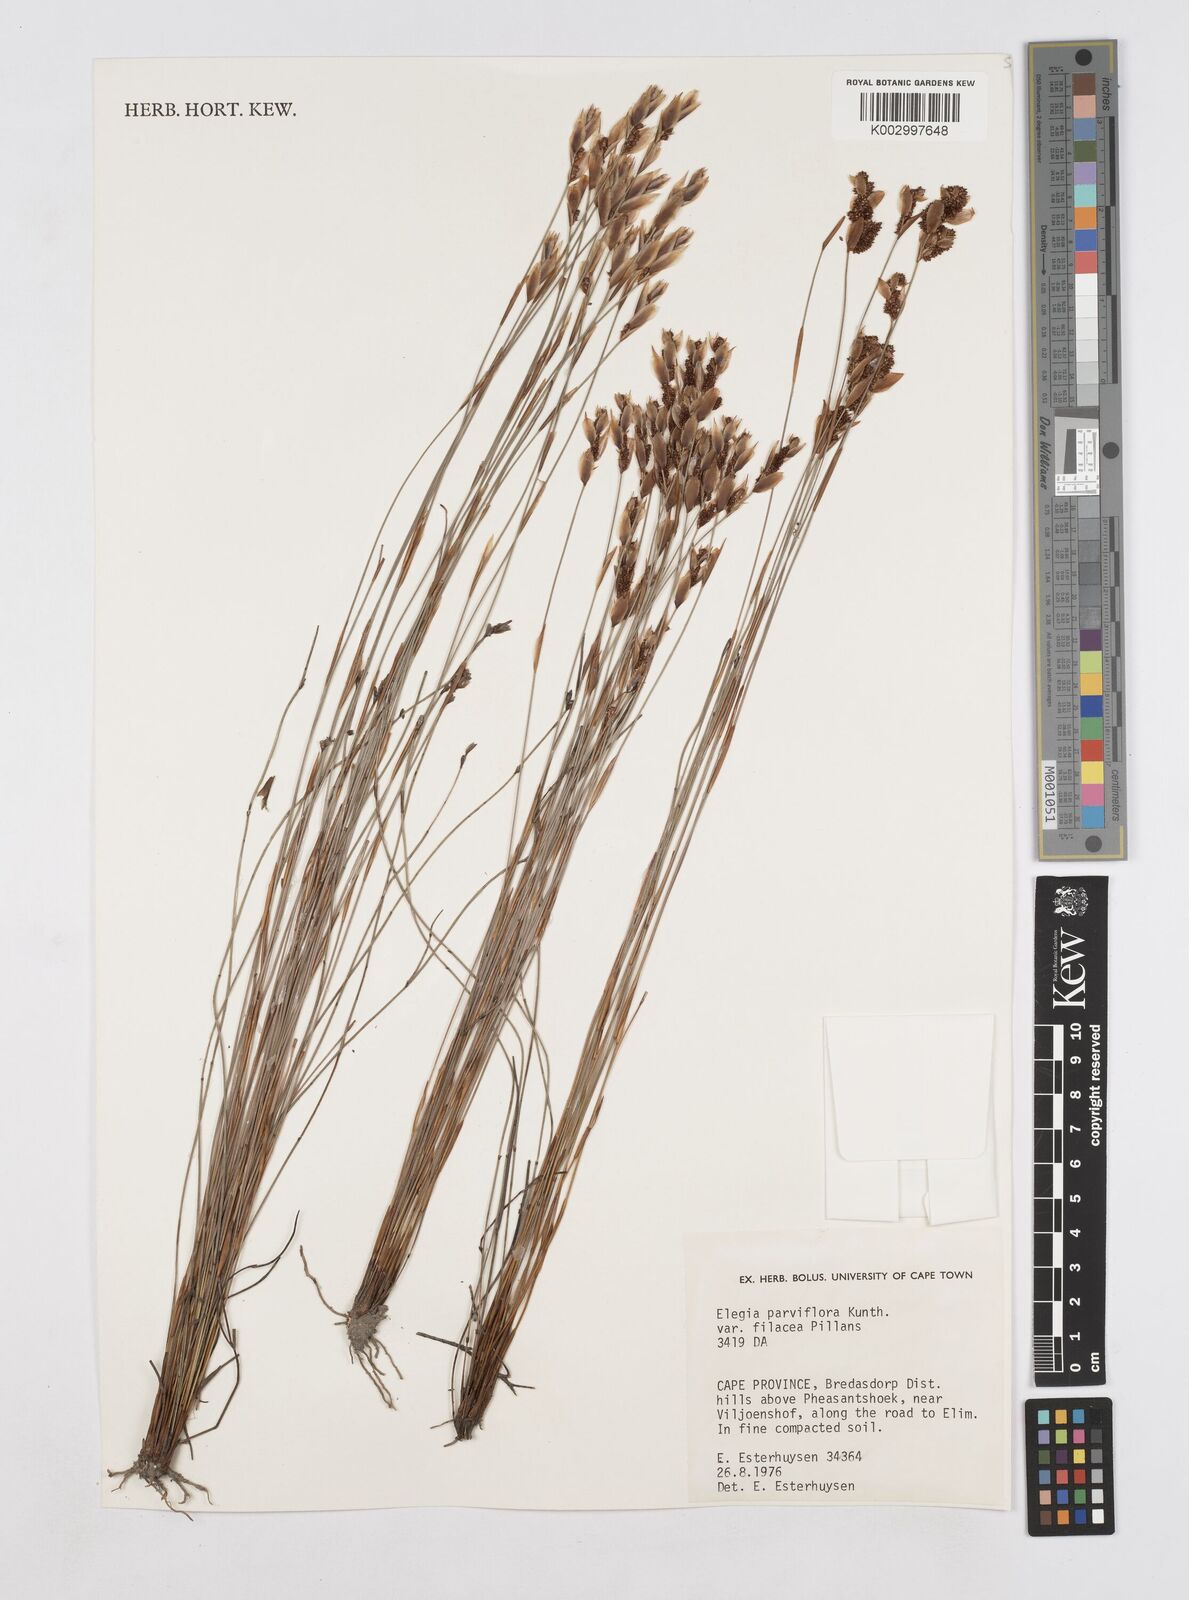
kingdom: Plantae
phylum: Tracheophyta
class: Liliopsida
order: Poales
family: Restionaceae
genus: Cannomois
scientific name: Cannomois parviflora
